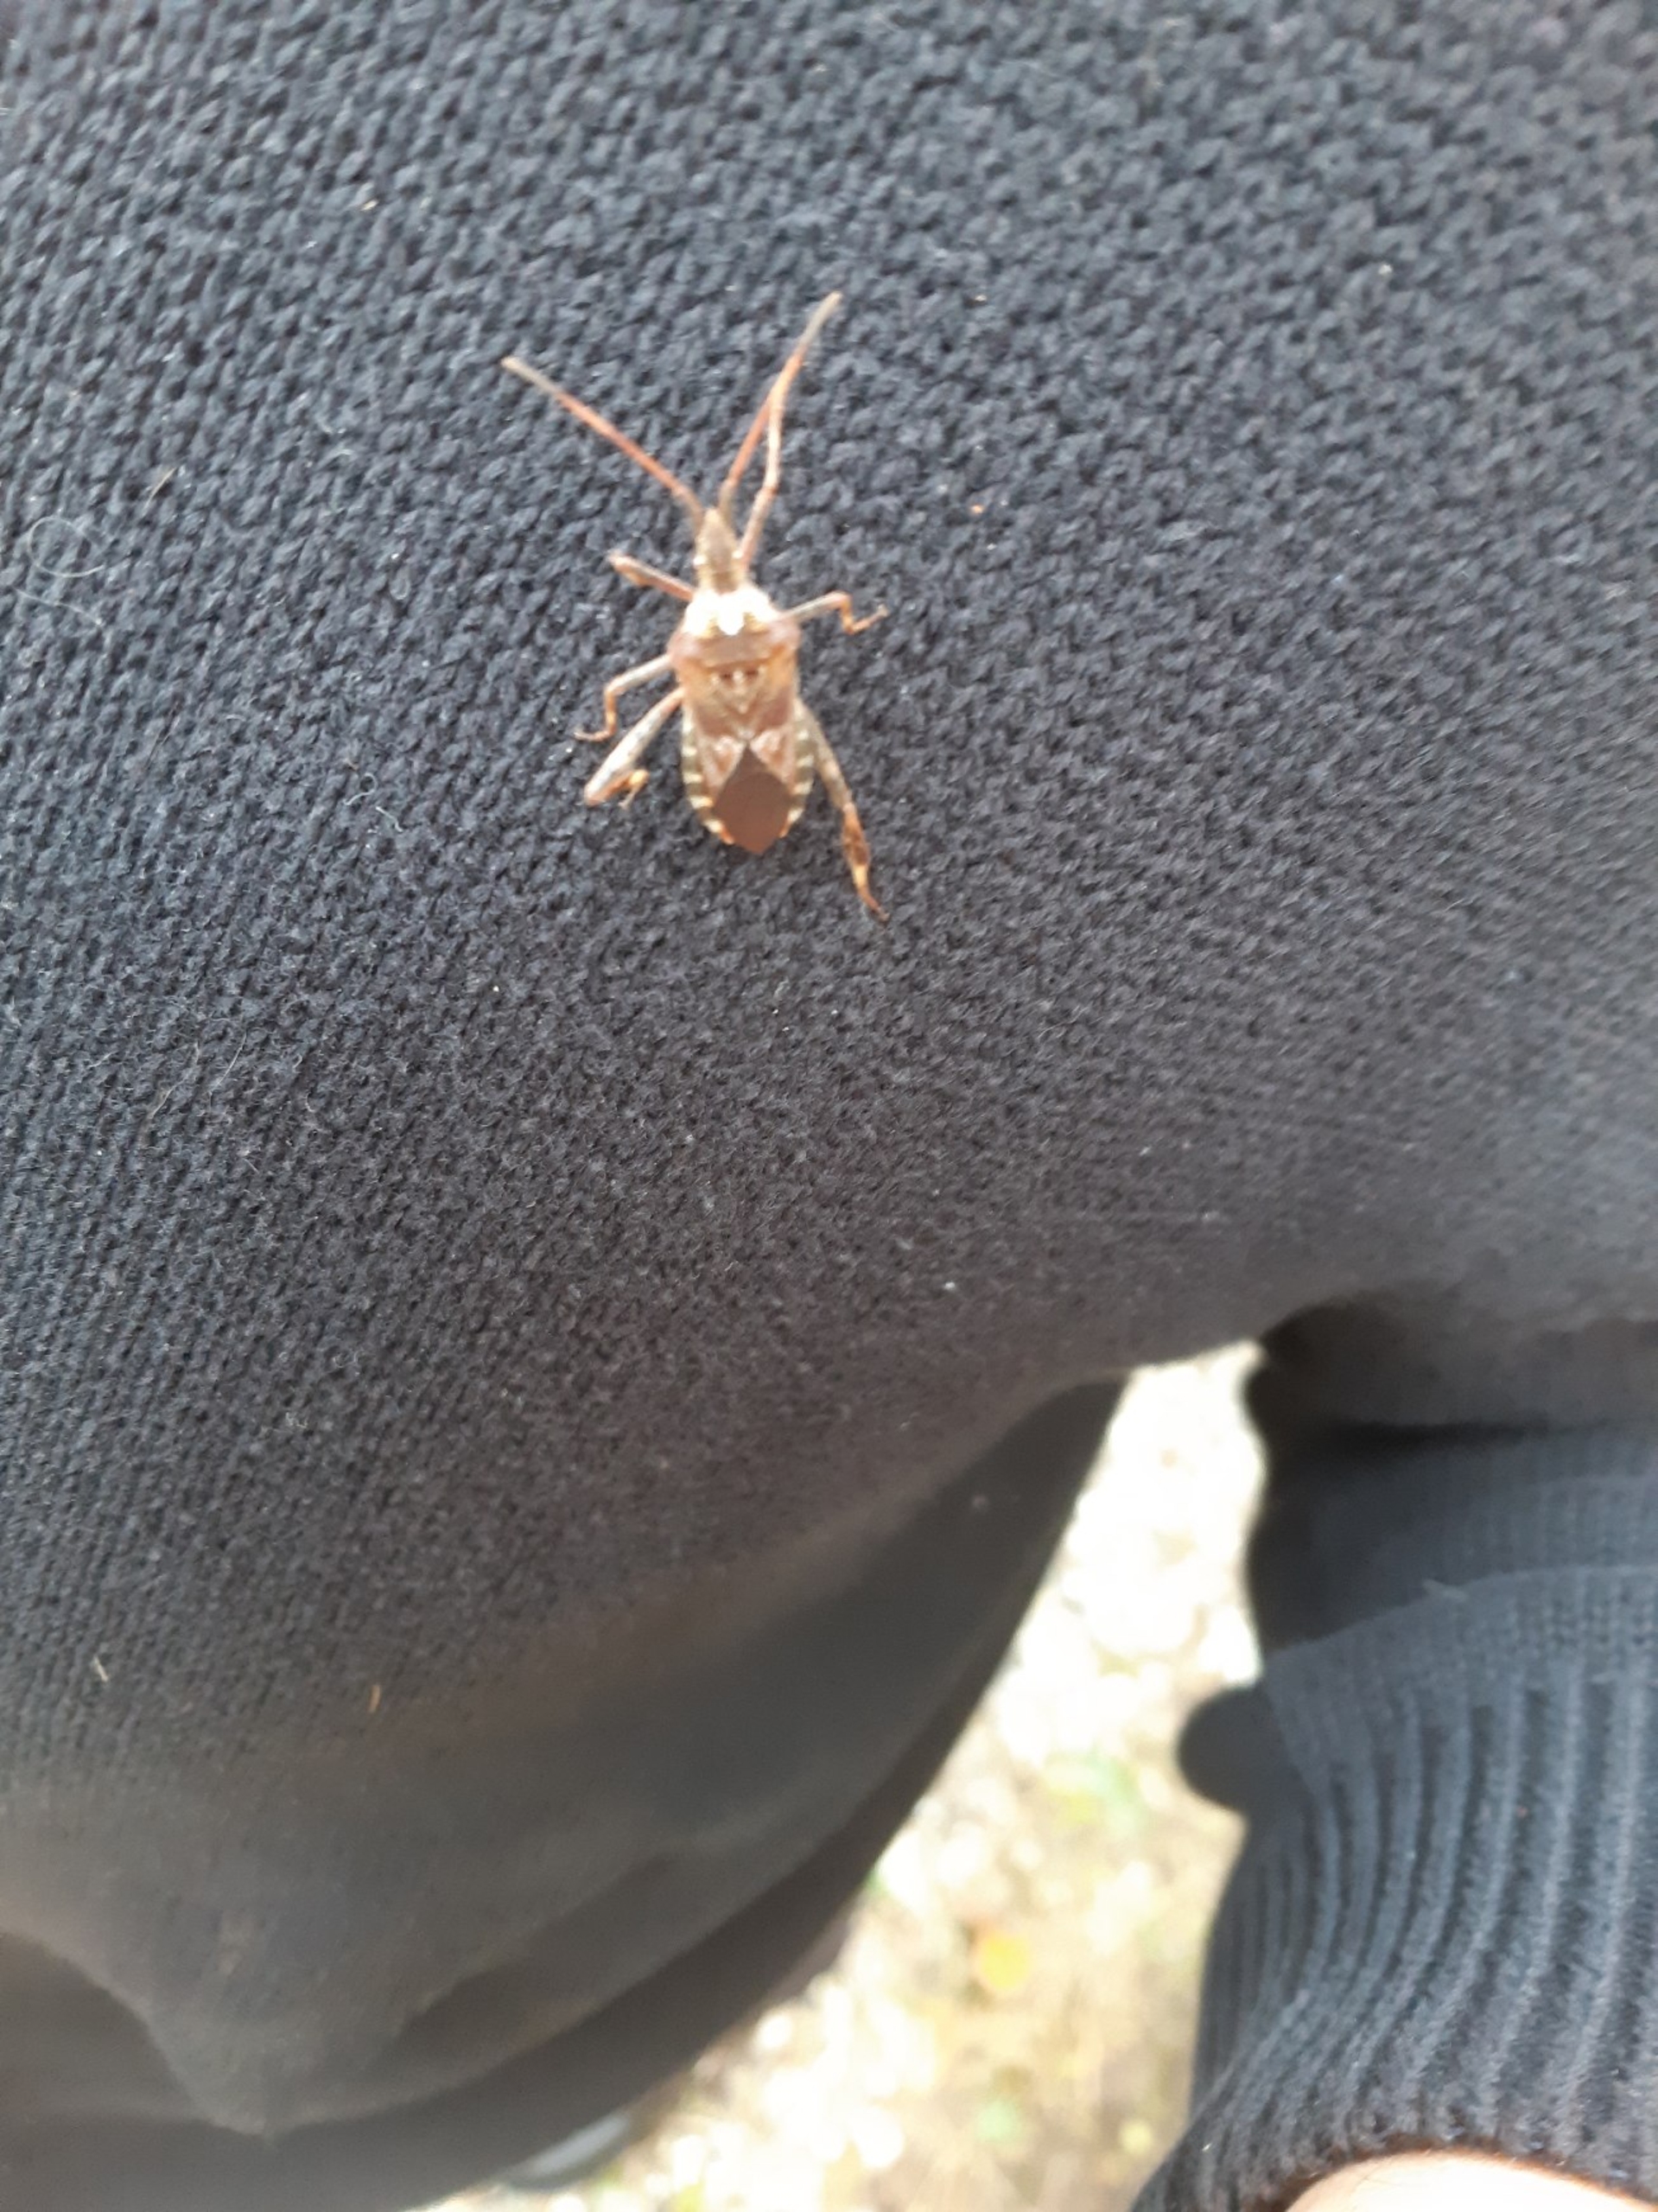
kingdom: Animalia
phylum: Arthropoda
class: Insecta
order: Hemiptera
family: Coreidae
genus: Leptoglossus
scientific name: Leptoglossus occidentalis
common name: Amerikansk fyrretæge
